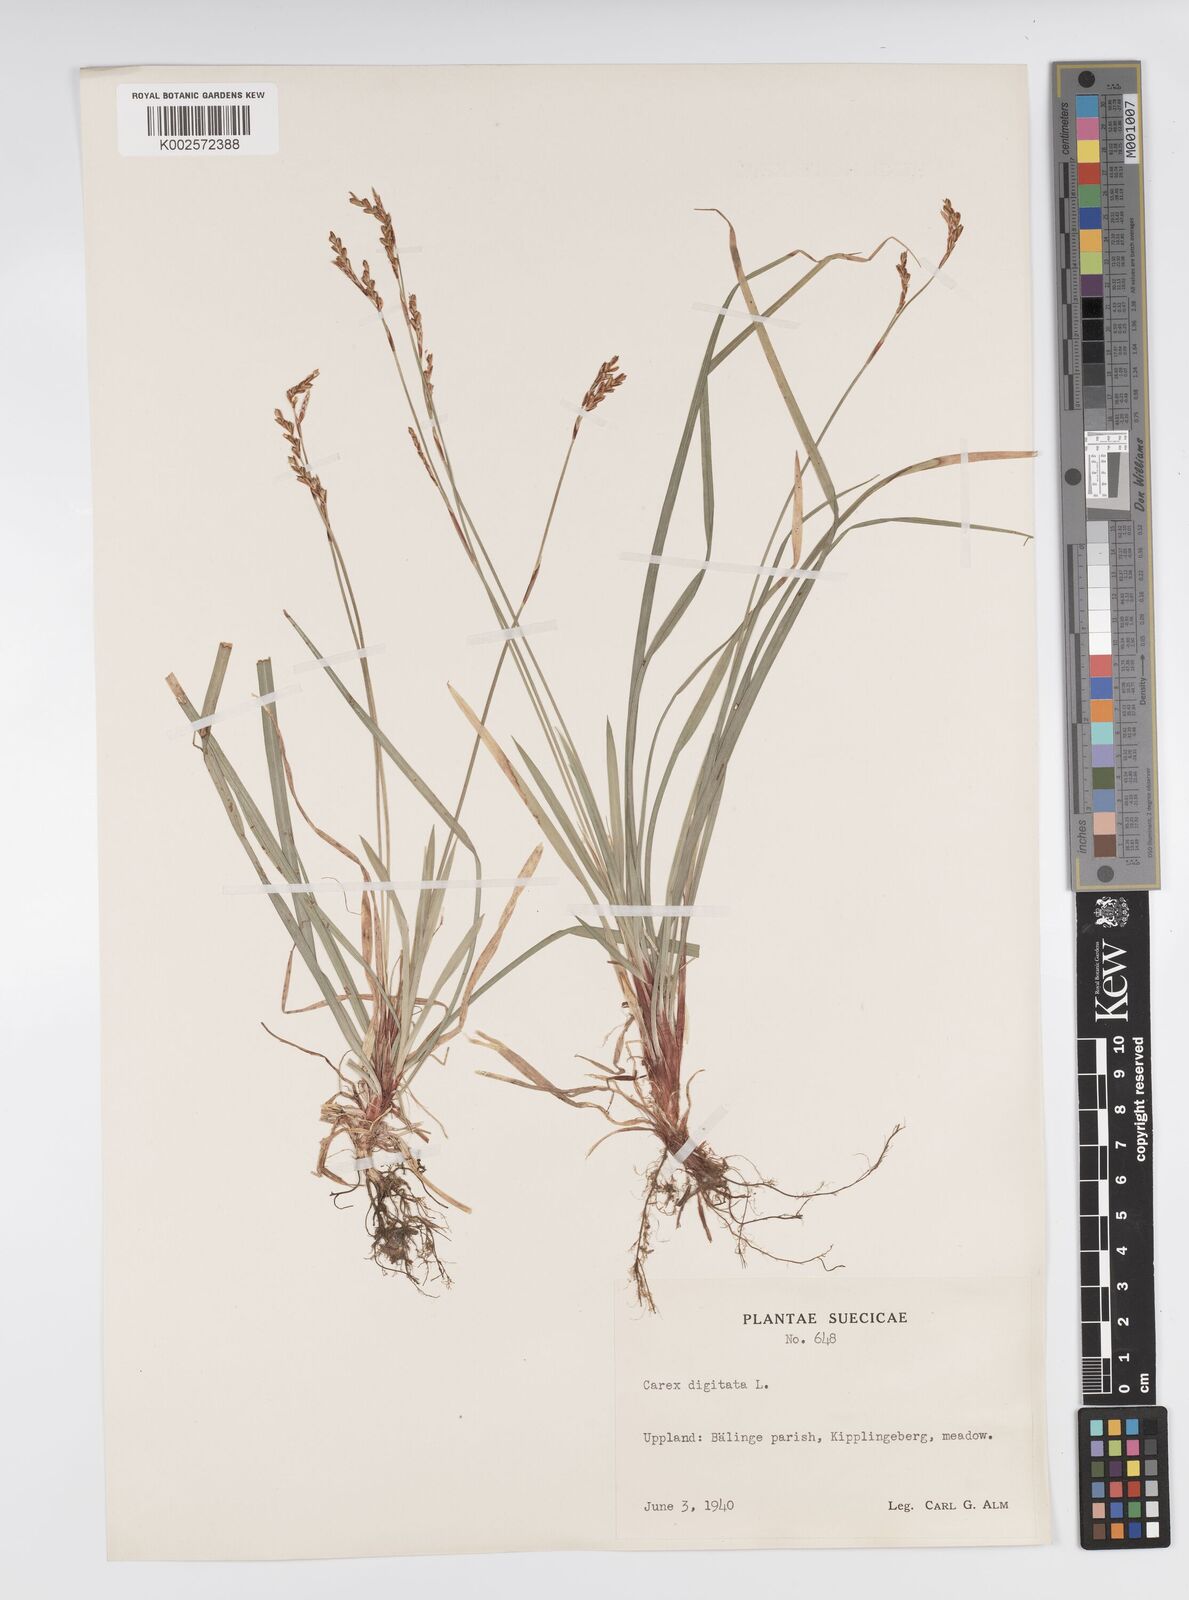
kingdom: Plantae
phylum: Tracheophyta
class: Liliopsida
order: Poales
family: Cyperaceae
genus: Carex
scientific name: Carex digitata
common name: Fingered sedge
